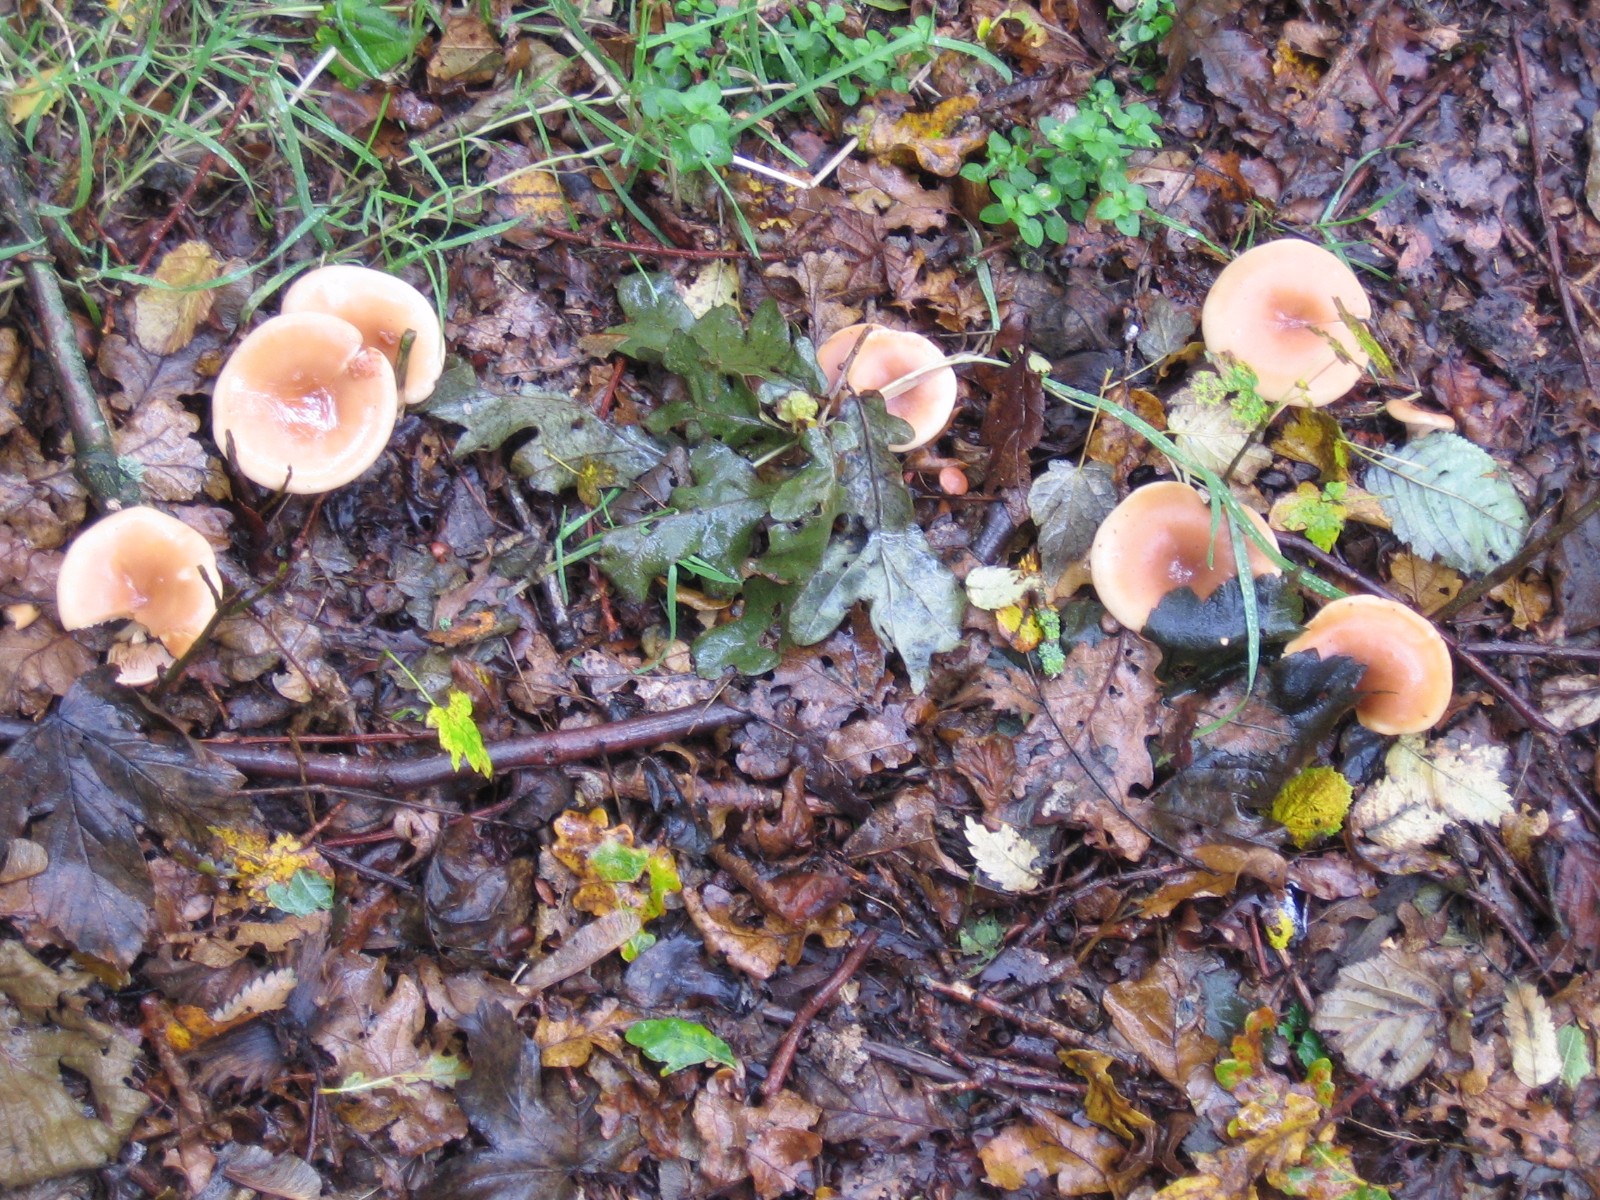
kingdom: Fungi
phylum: Basidiomycota
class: Agaricomycetes
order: Agaricales
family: Tricholomataceae
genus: Paralepista
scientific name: Paralepista flaccida
